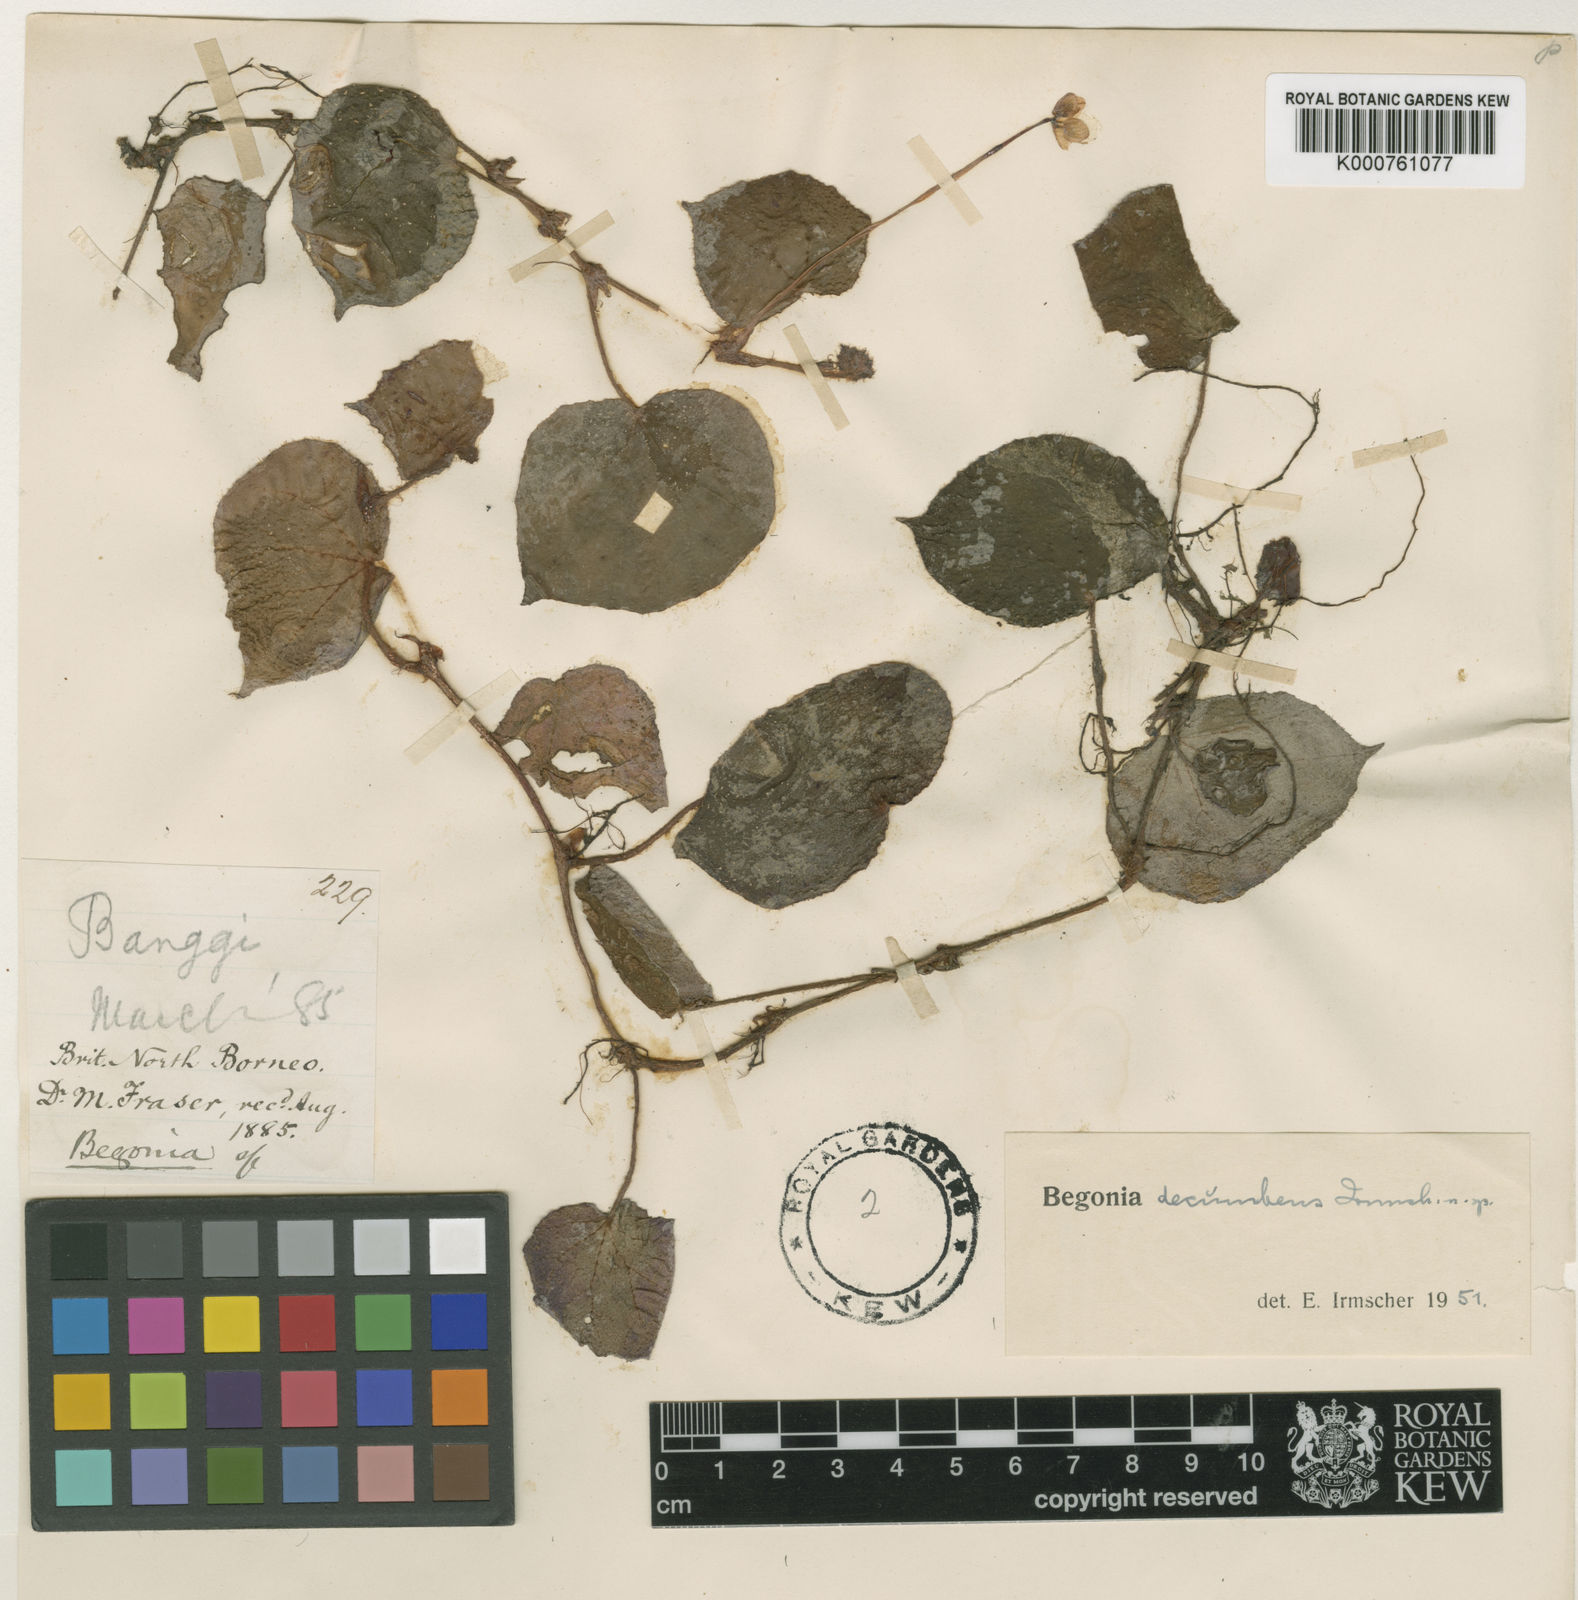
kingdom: Plantae
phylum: Tracheophyta
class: Magnoliopsida
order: Cucurbitales
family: Begoniaceae
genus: Begonia
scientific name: Begonia
